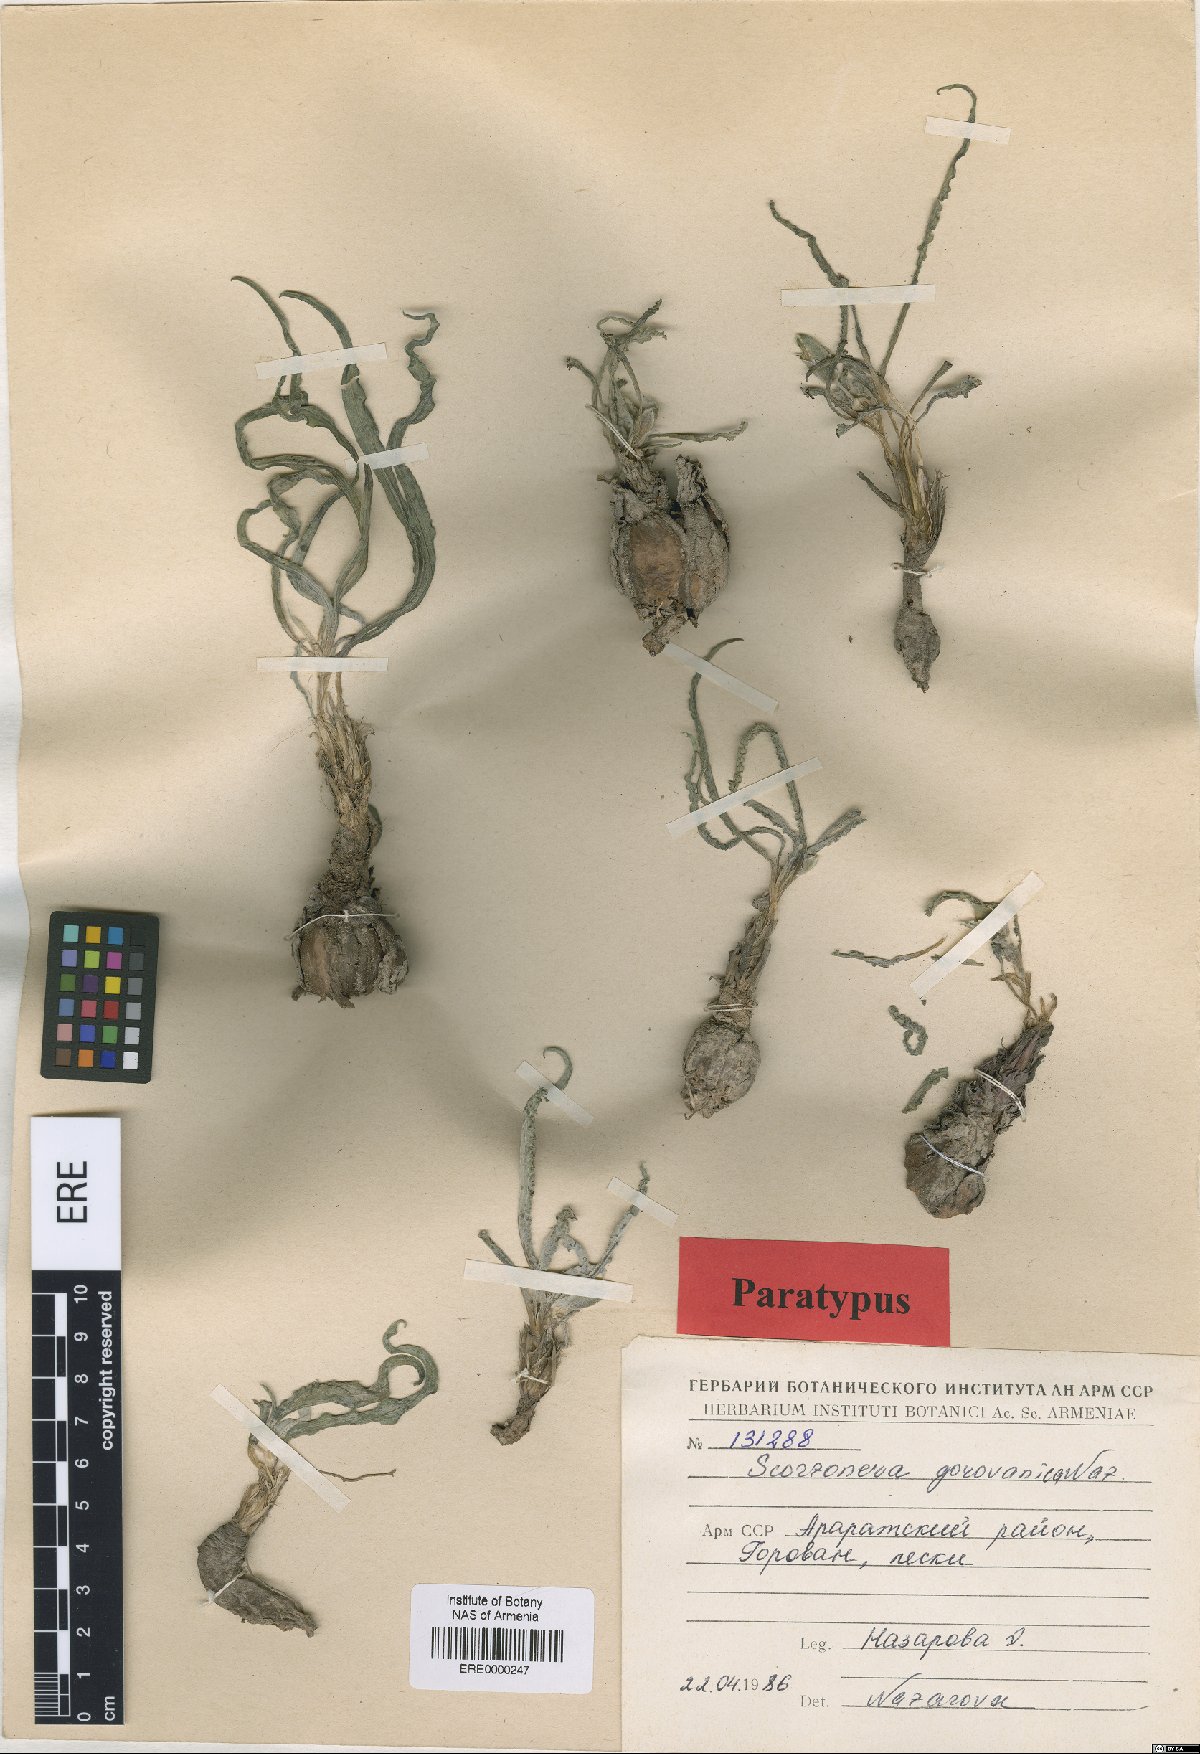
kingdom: Plantae
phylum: Tracheophyta
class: Magnoliopsida
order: Asterales
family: Asteraceae
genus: Scorzonera
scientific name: Scorzonera gorovanica
